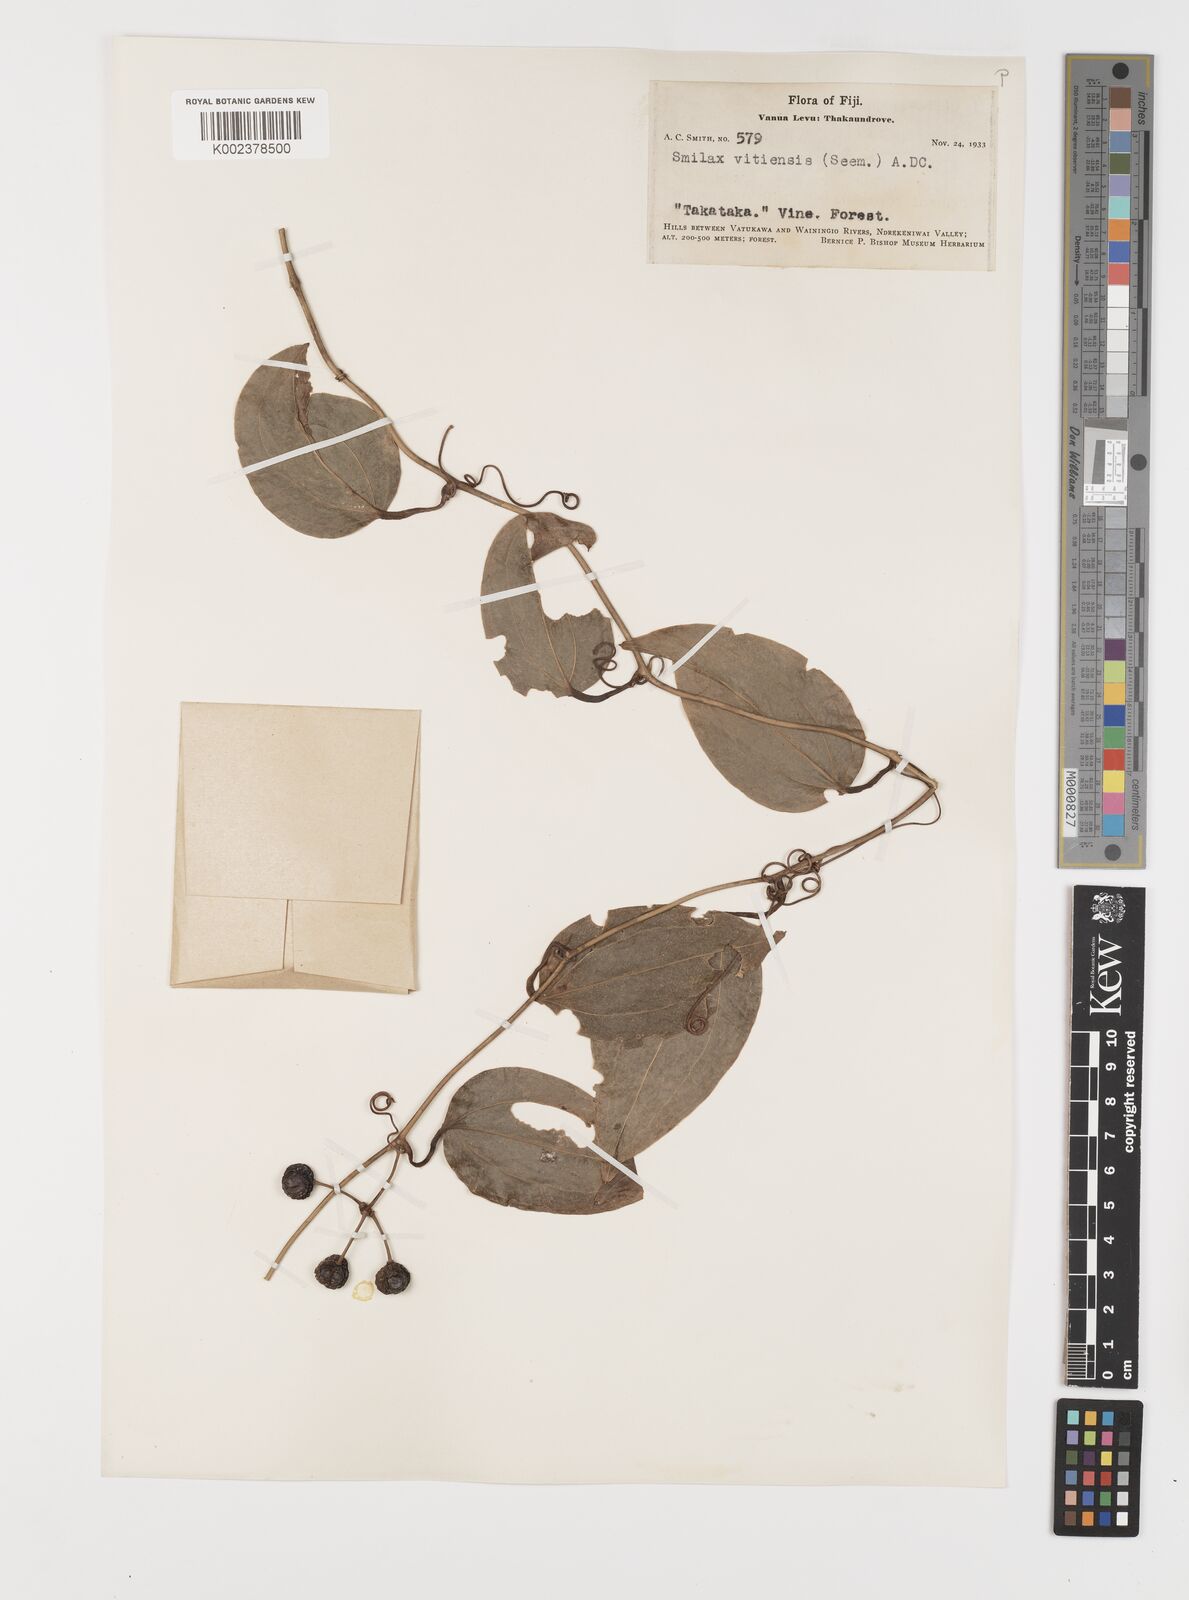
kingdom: Plantae
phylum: Tracheophyta
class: Liliopsida
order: Liliales
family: Smilacaceae
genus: Smilax
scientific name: Smilax vitiensis
